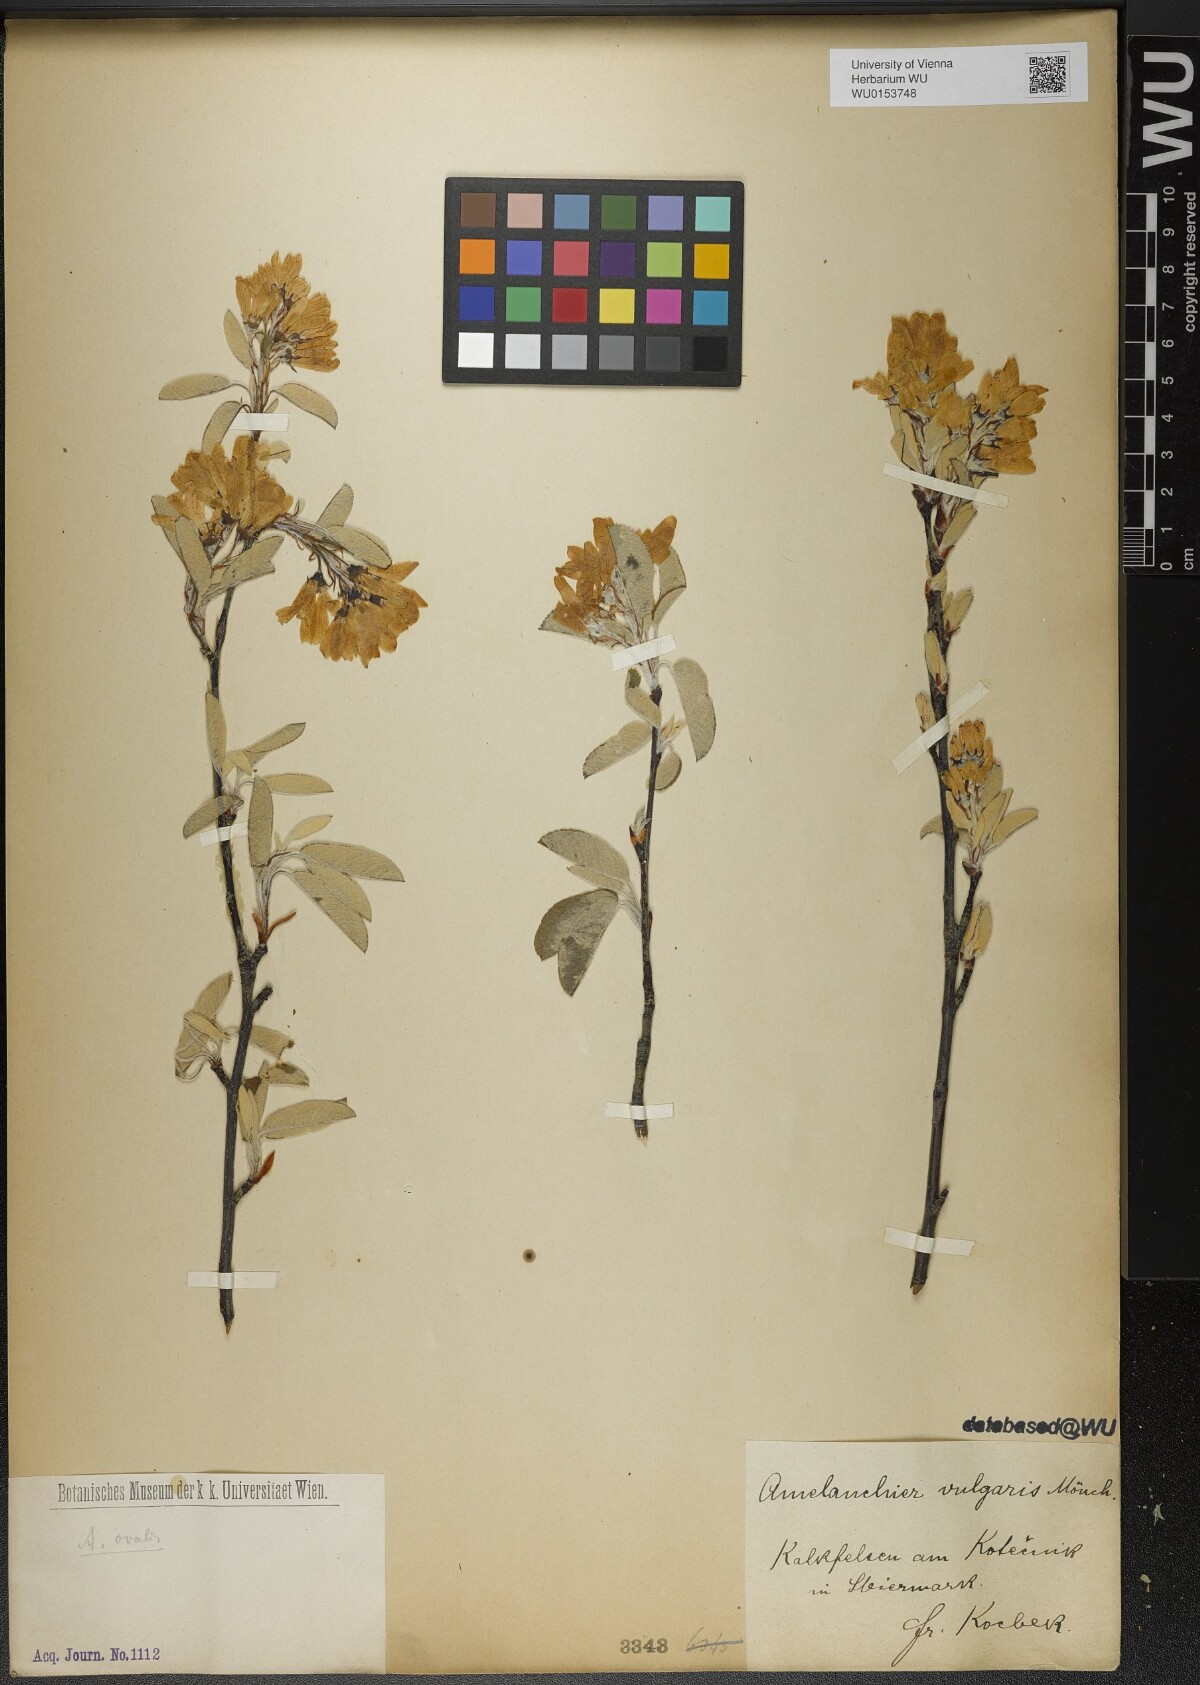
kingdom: Plantae
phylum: Tracheophyta
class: Magnoliopsida
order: Rosales
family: Rosaceae
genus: Amelanchier
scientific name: Amelanchier ovalis
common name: Serviceberry
